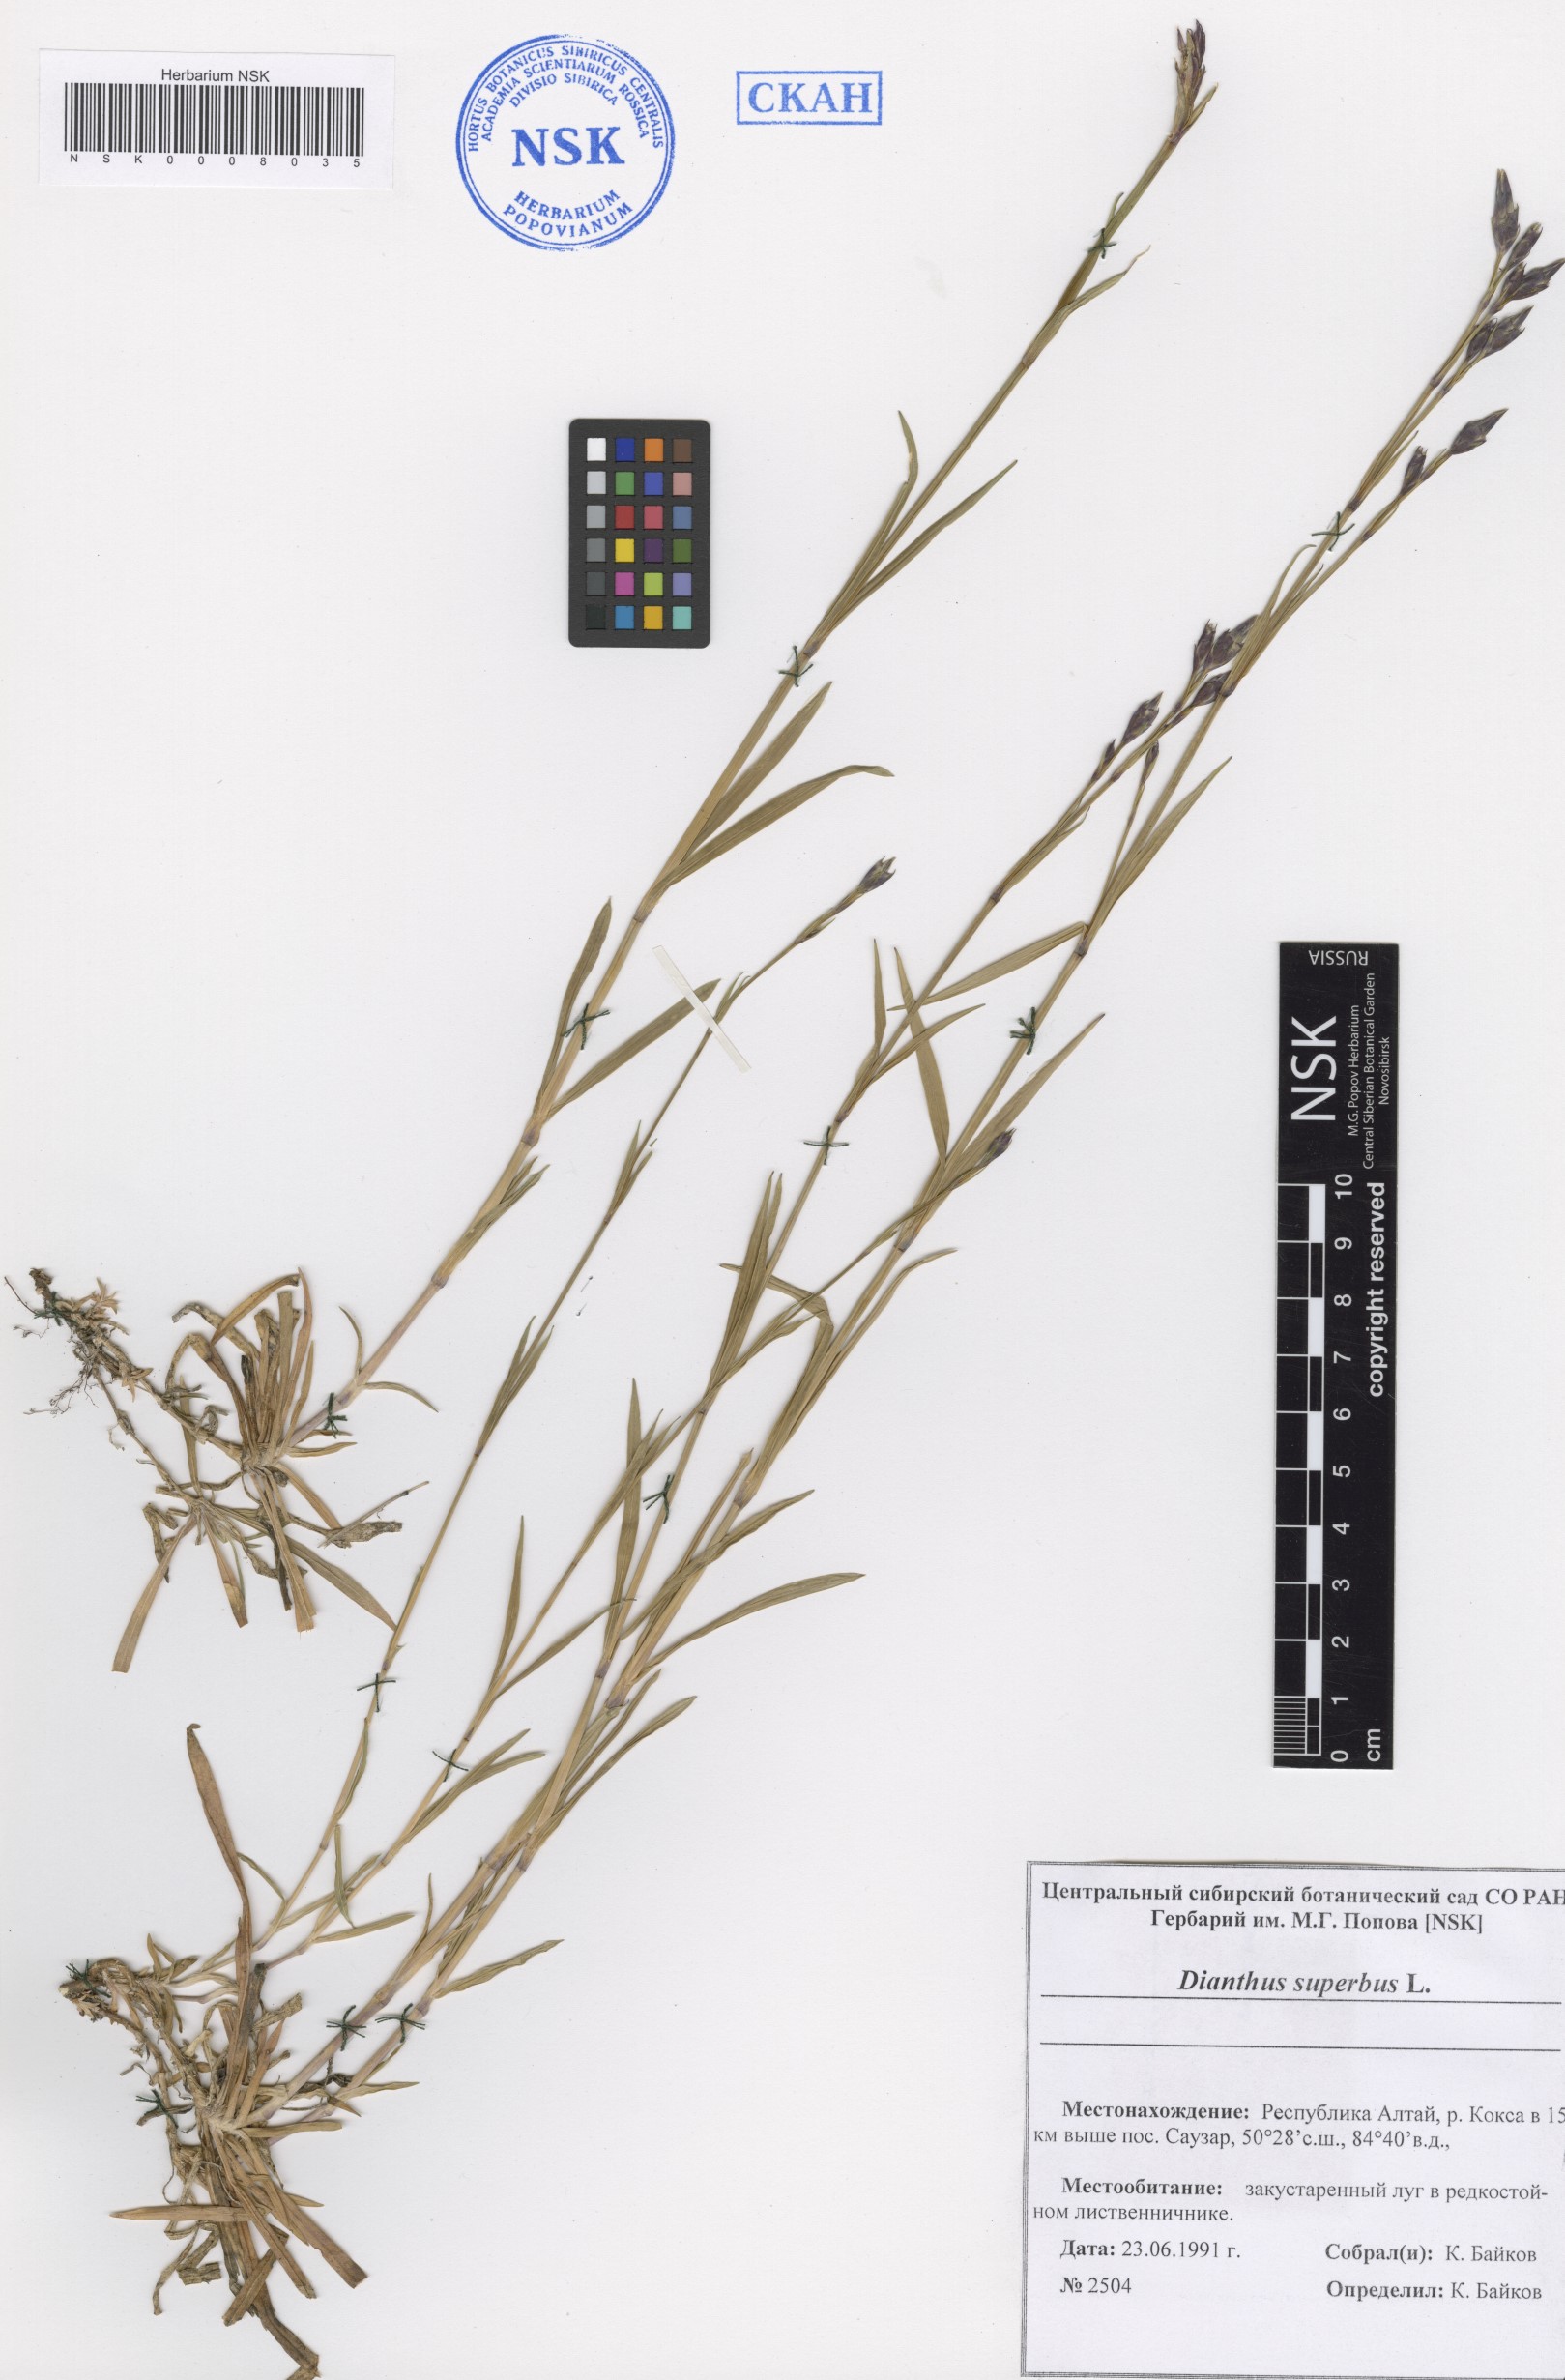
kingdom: Plantae
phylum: Tracheophyta
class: Magnoliopsida
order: Caryophyllales
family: Caryophyllaceae
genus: Dianthus
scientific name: Dianthus superbus
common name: Fringed pink
